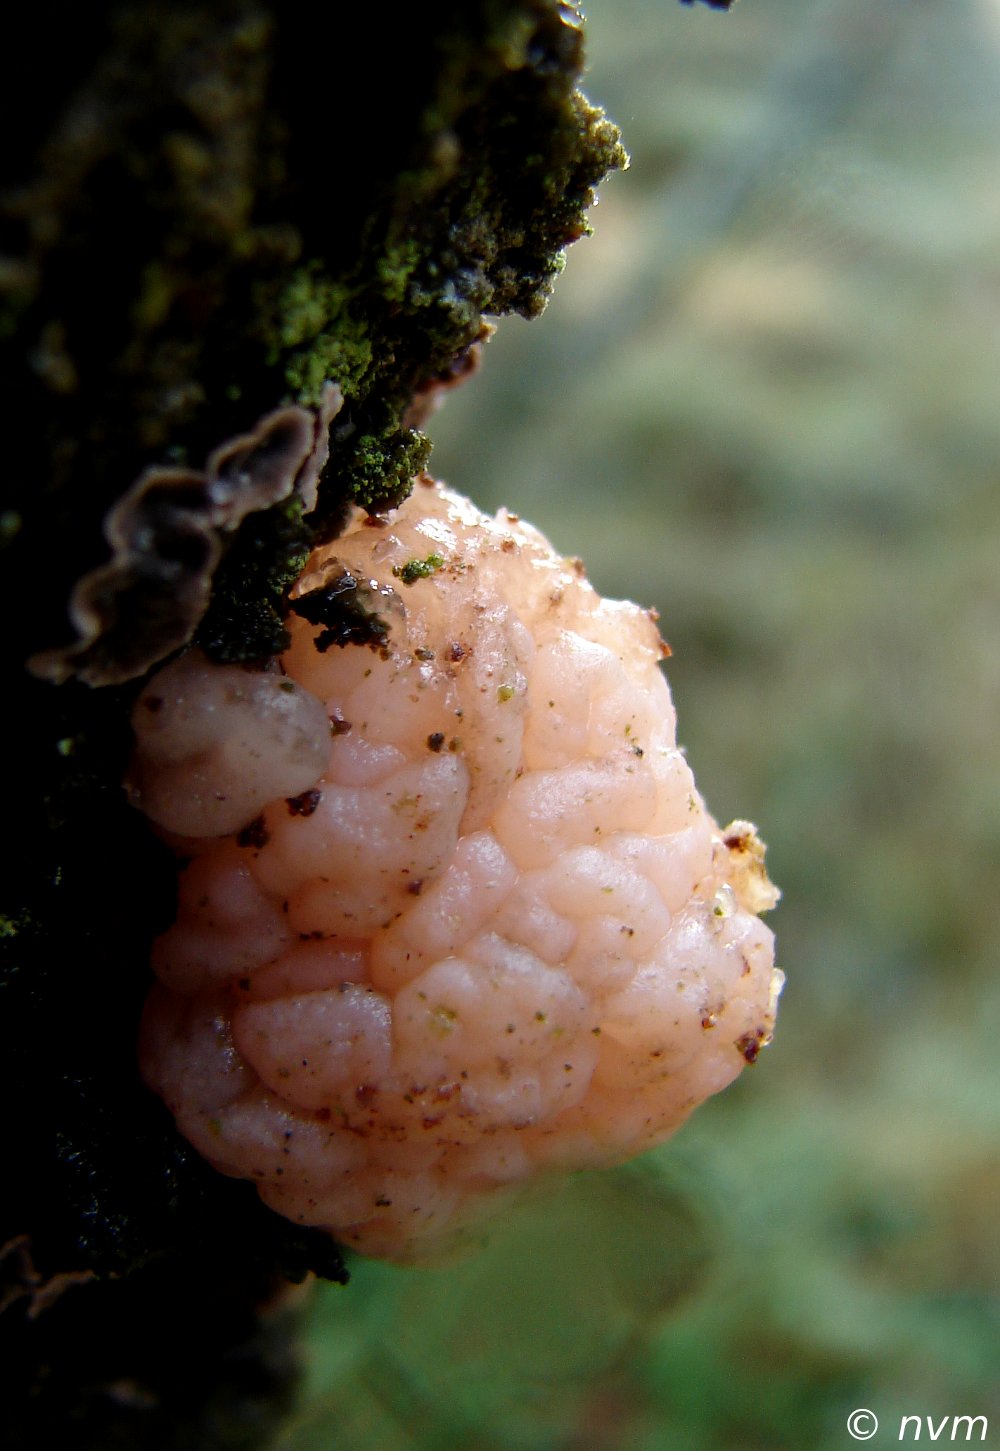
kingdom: Fungi
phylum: Basidiomycota
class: Tremellomycetes
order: Tremellales
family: Naemateliaceae
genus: Naematelia
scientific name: Naematelia encephala
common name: fyrre-bævresvamp
